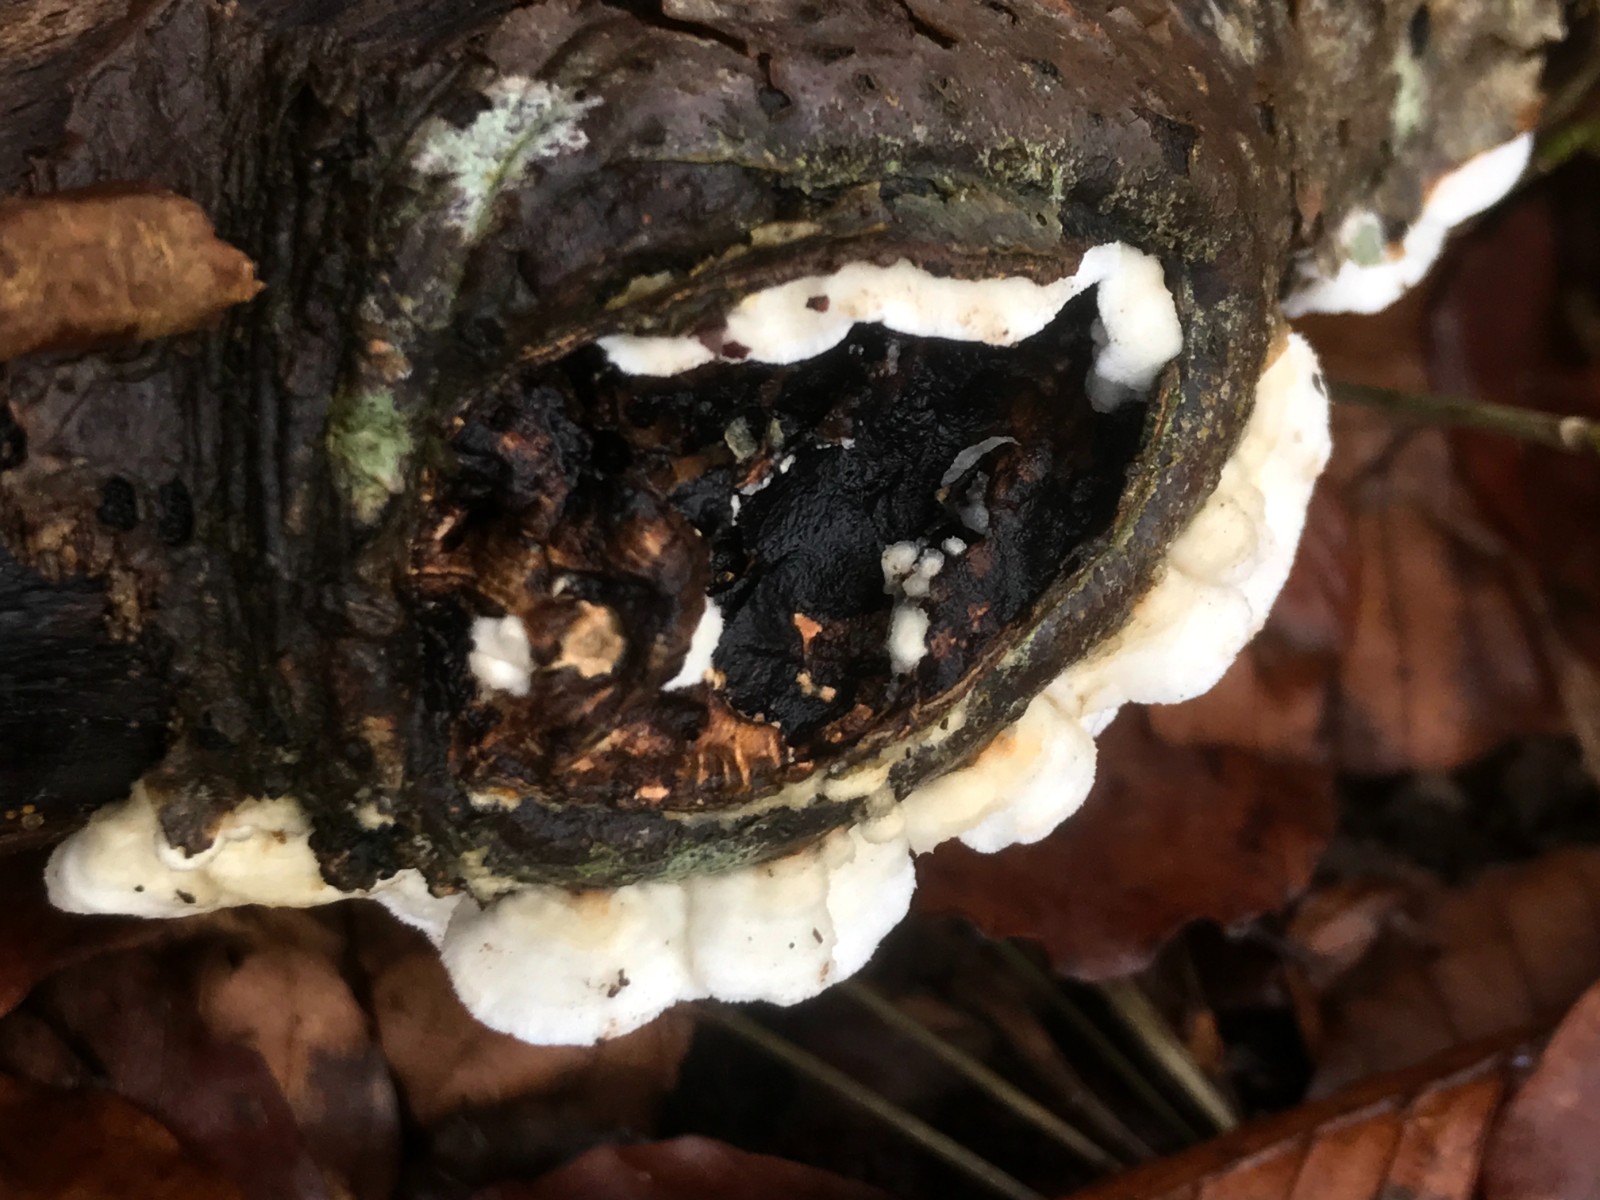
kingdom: Fungi
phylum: Basidiomycota
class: Agaricomycetes
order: Polyporales
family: Irpicaceae
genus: Byssomerulius
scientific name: Byssomerulius corium
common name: læder-åresvamp
